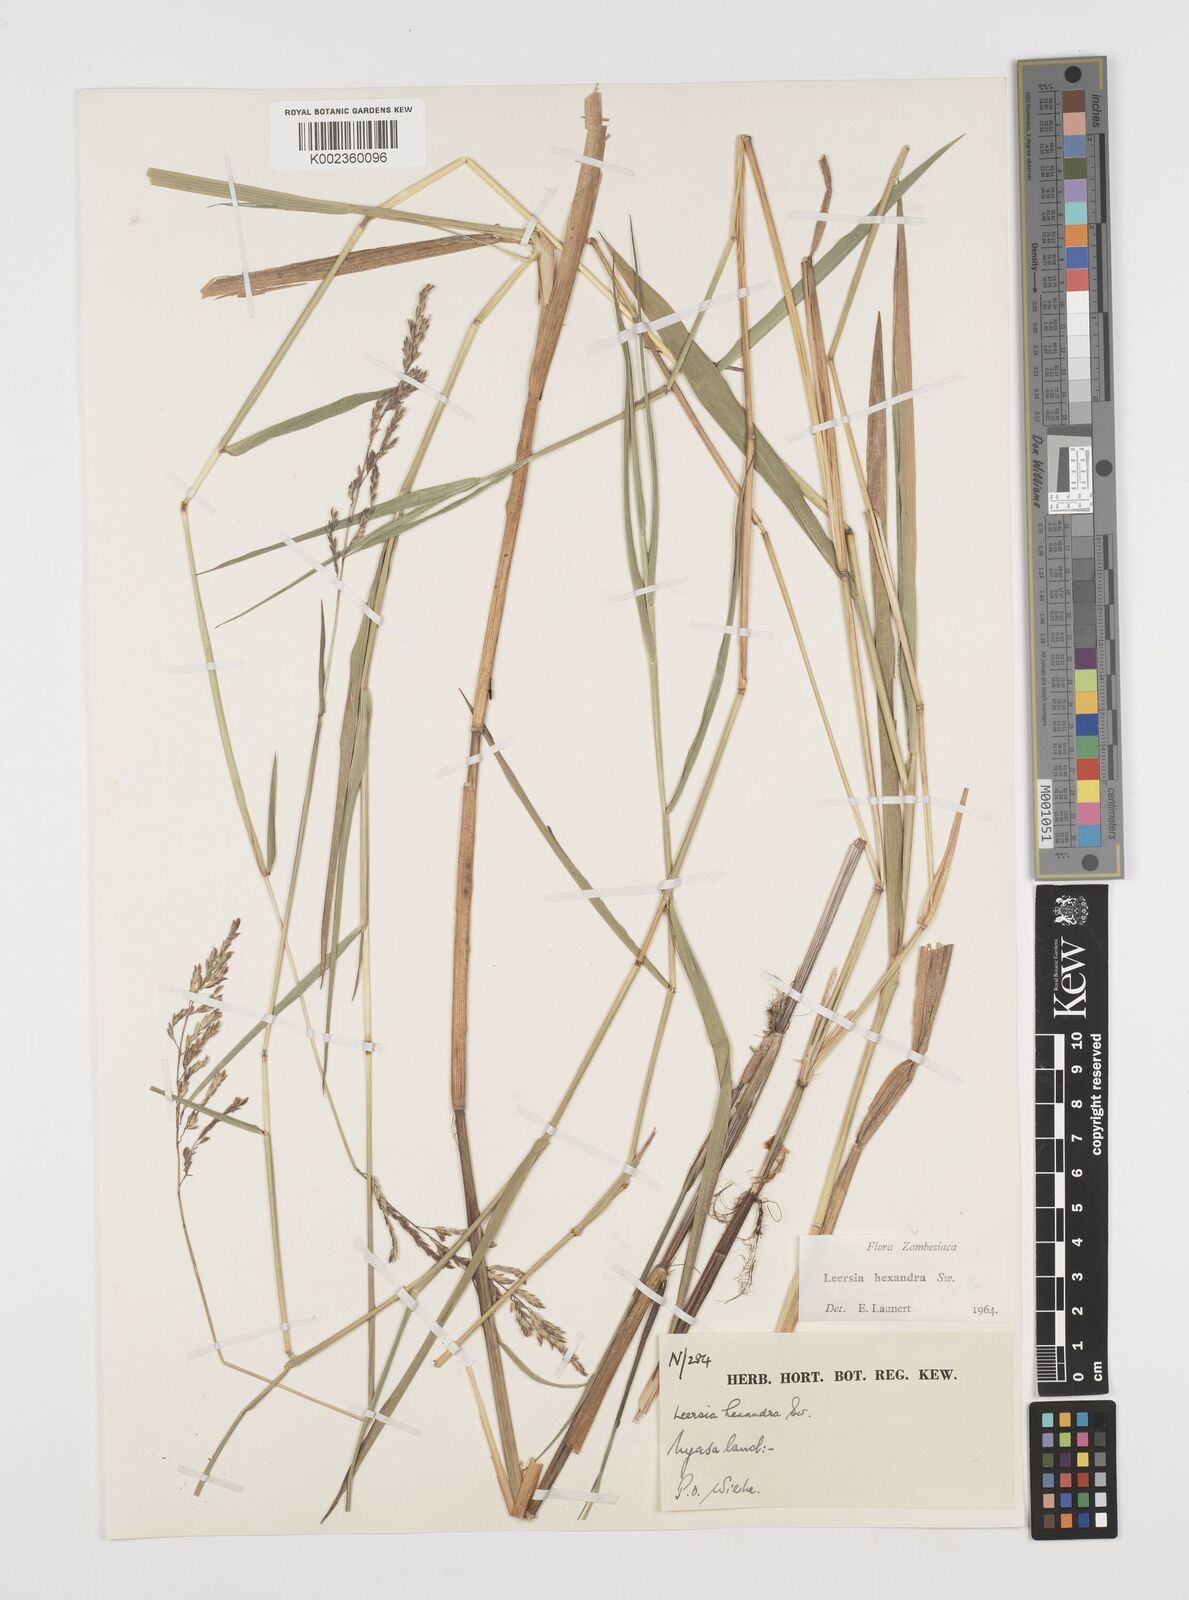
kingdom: Plantae
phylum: Tracheophyta
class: Liliopsida
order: Poales
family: Poaceae
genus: Leersia
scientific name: Leersia hexandra
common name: Southern cut grass
